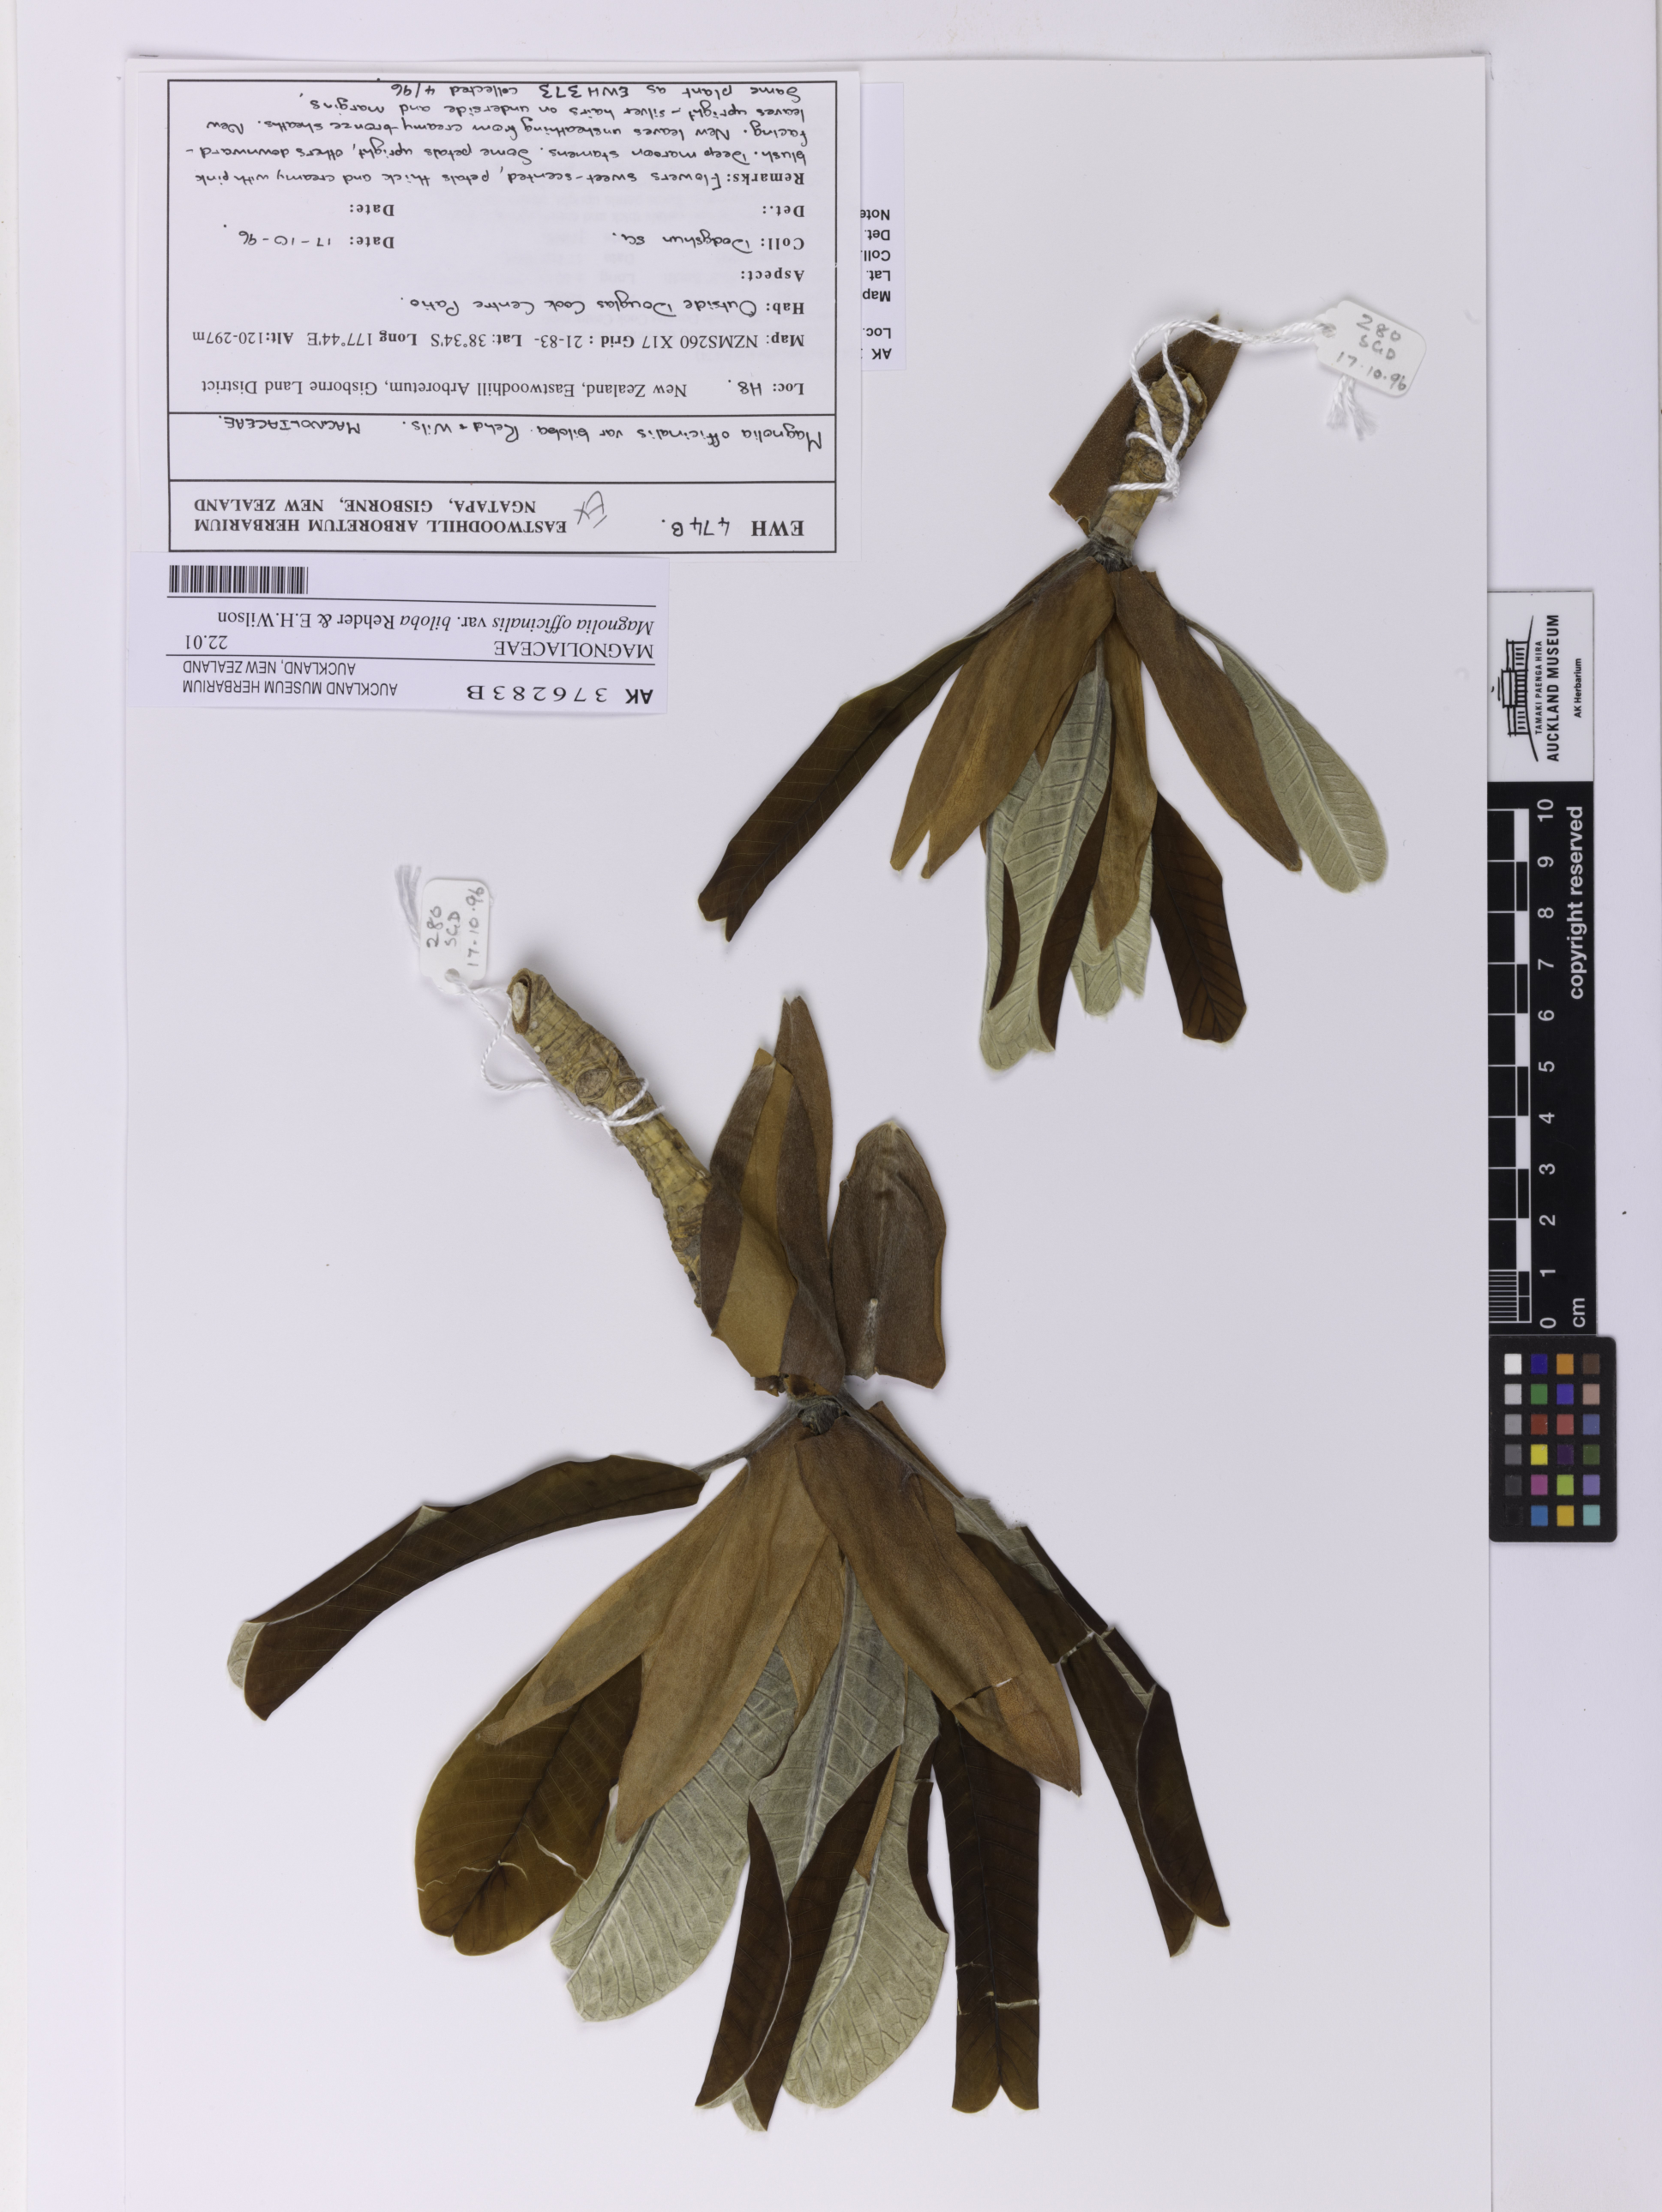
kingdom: Plantae
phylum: Tracheophyta
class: Magnoliopsida
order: Magnoliales
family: Magnoliaceae
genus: Magnolia
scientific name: Magnolia officinalis
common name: Magnolia-bark
